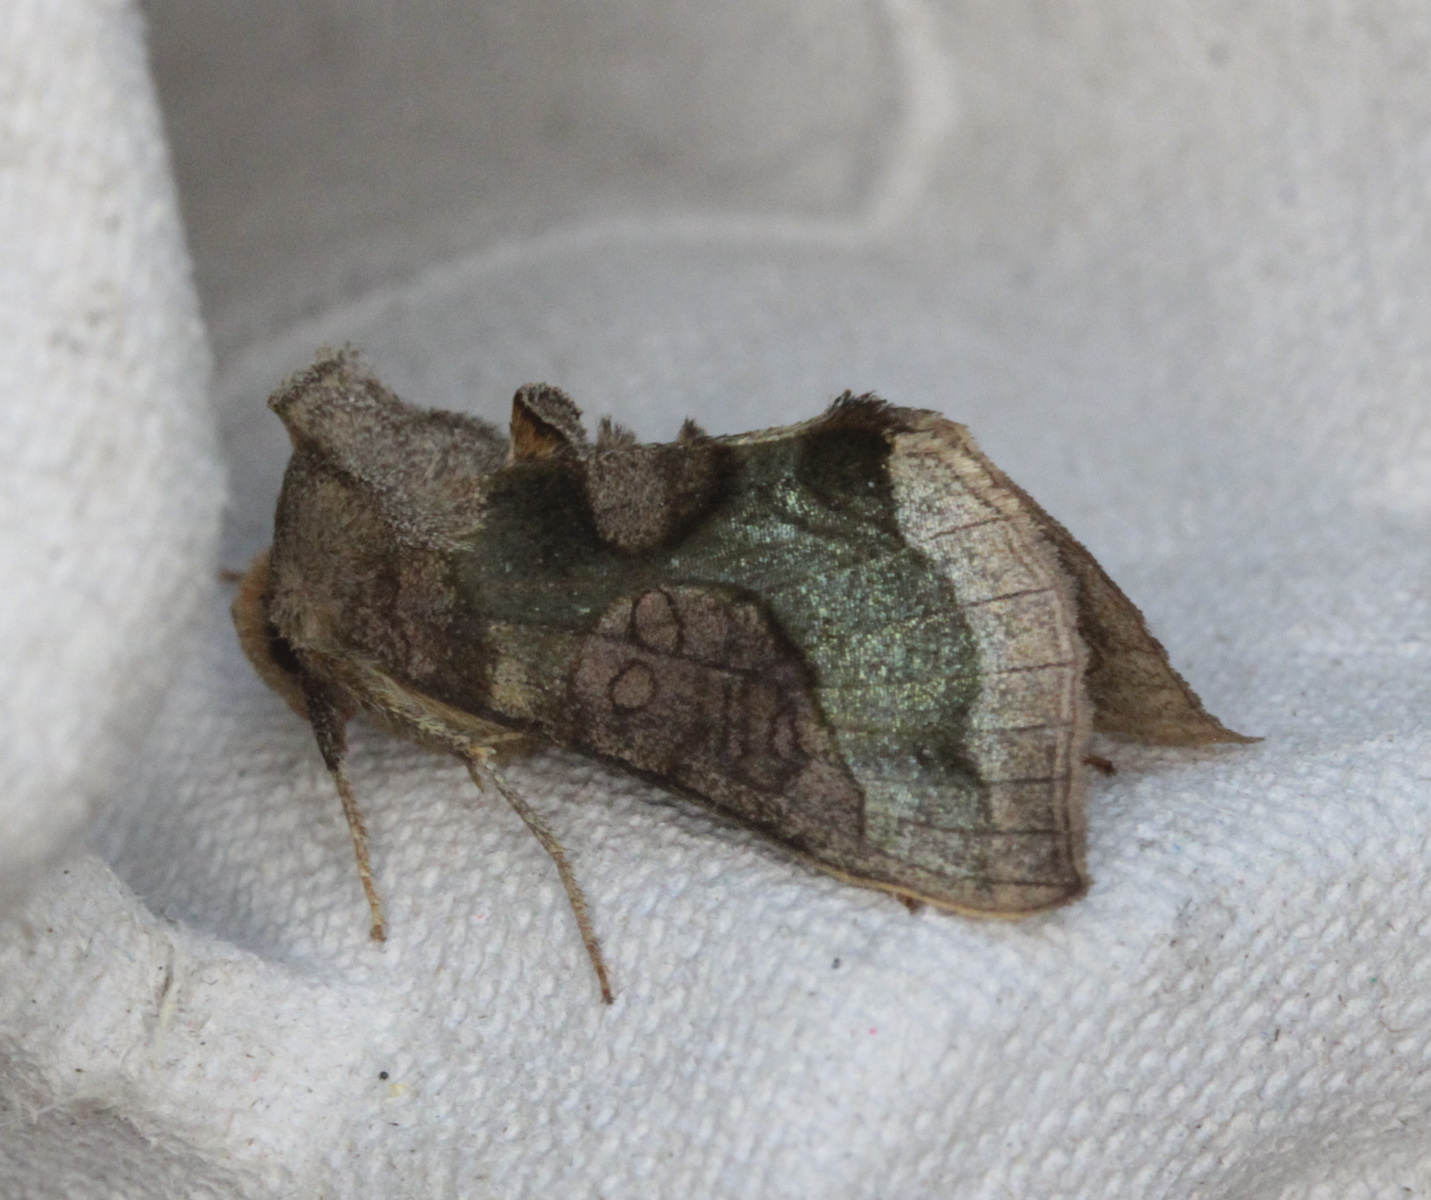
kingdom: Animalia
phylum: Arthropoda
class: Insecta
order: Lepidoptera
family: Noctuidae
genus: Diachrysia
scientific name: Diachrysia chrysitis
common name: Burnished brass
